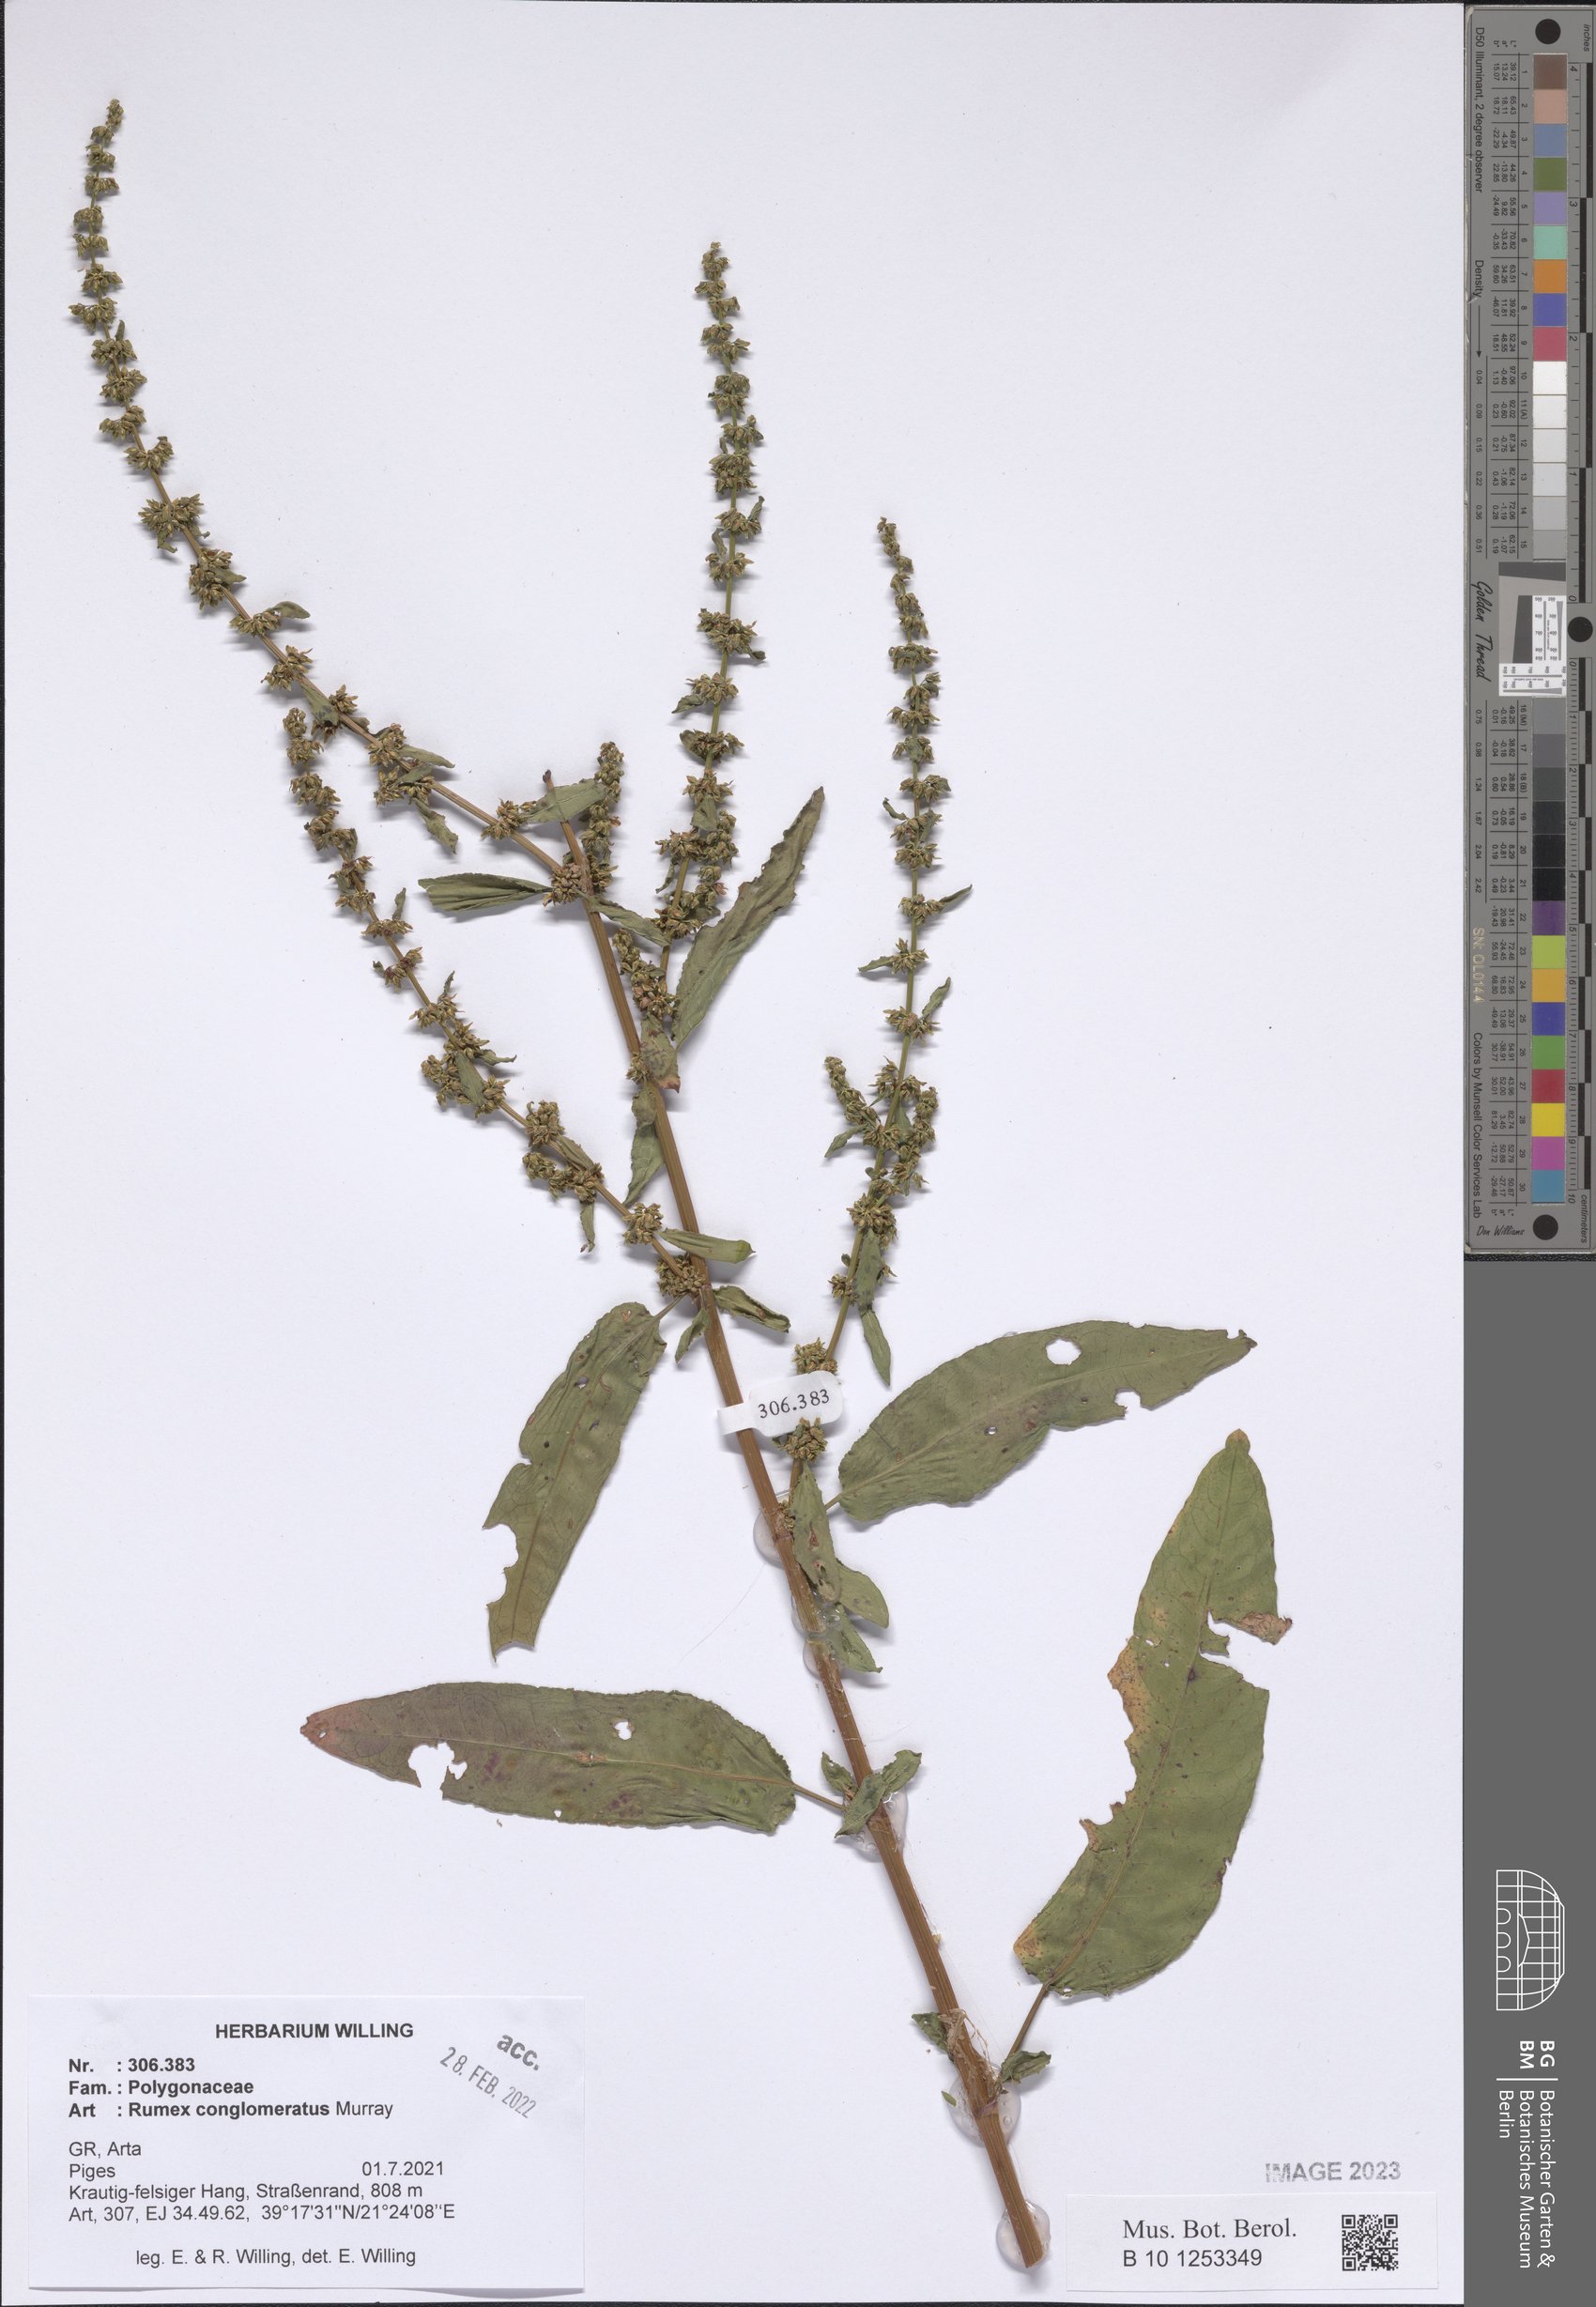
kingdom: Plantae
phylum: Tracheophyta
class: Magnoliopsida
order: Caryophyllales
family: Polygonaceae
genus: Rumex
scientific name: Rumex conglomeratus
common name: Clustered dock
